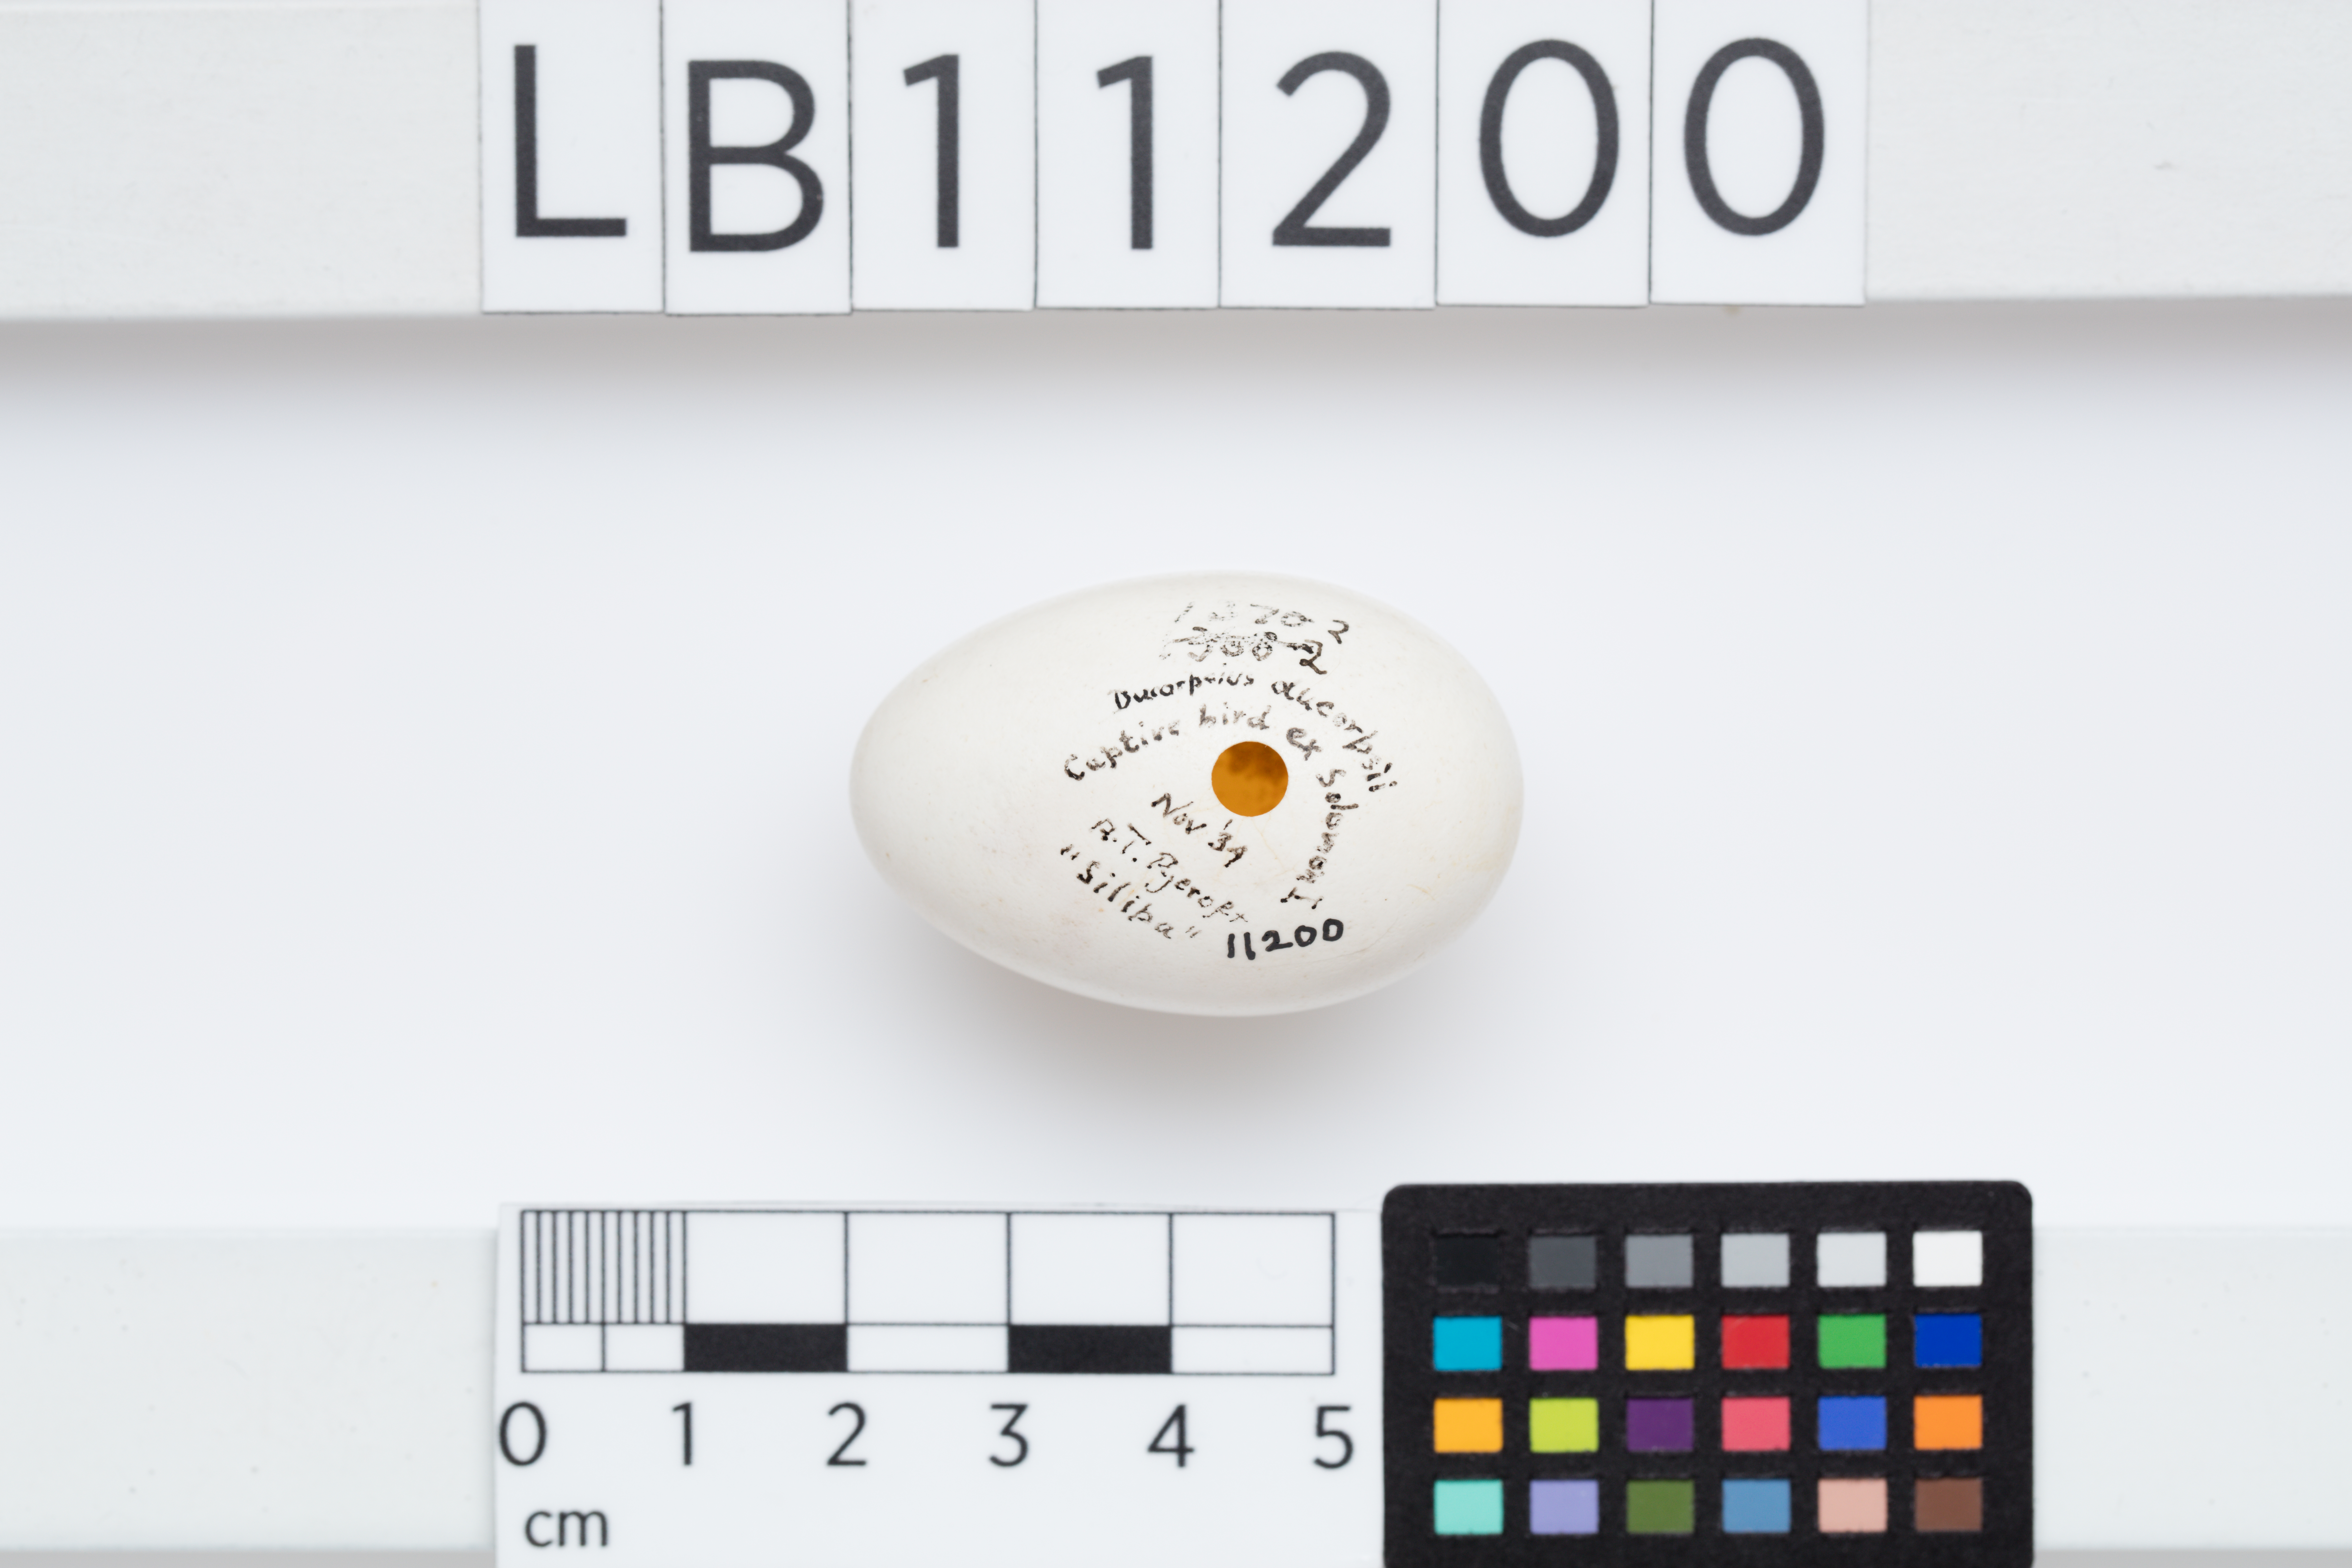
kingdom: Animalia
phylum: Chordata
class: Aves
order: Psittaciformes
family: Psittacidae
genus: Cacatua
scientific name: Cacatua ducorpsii
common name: Broad-crested corella
